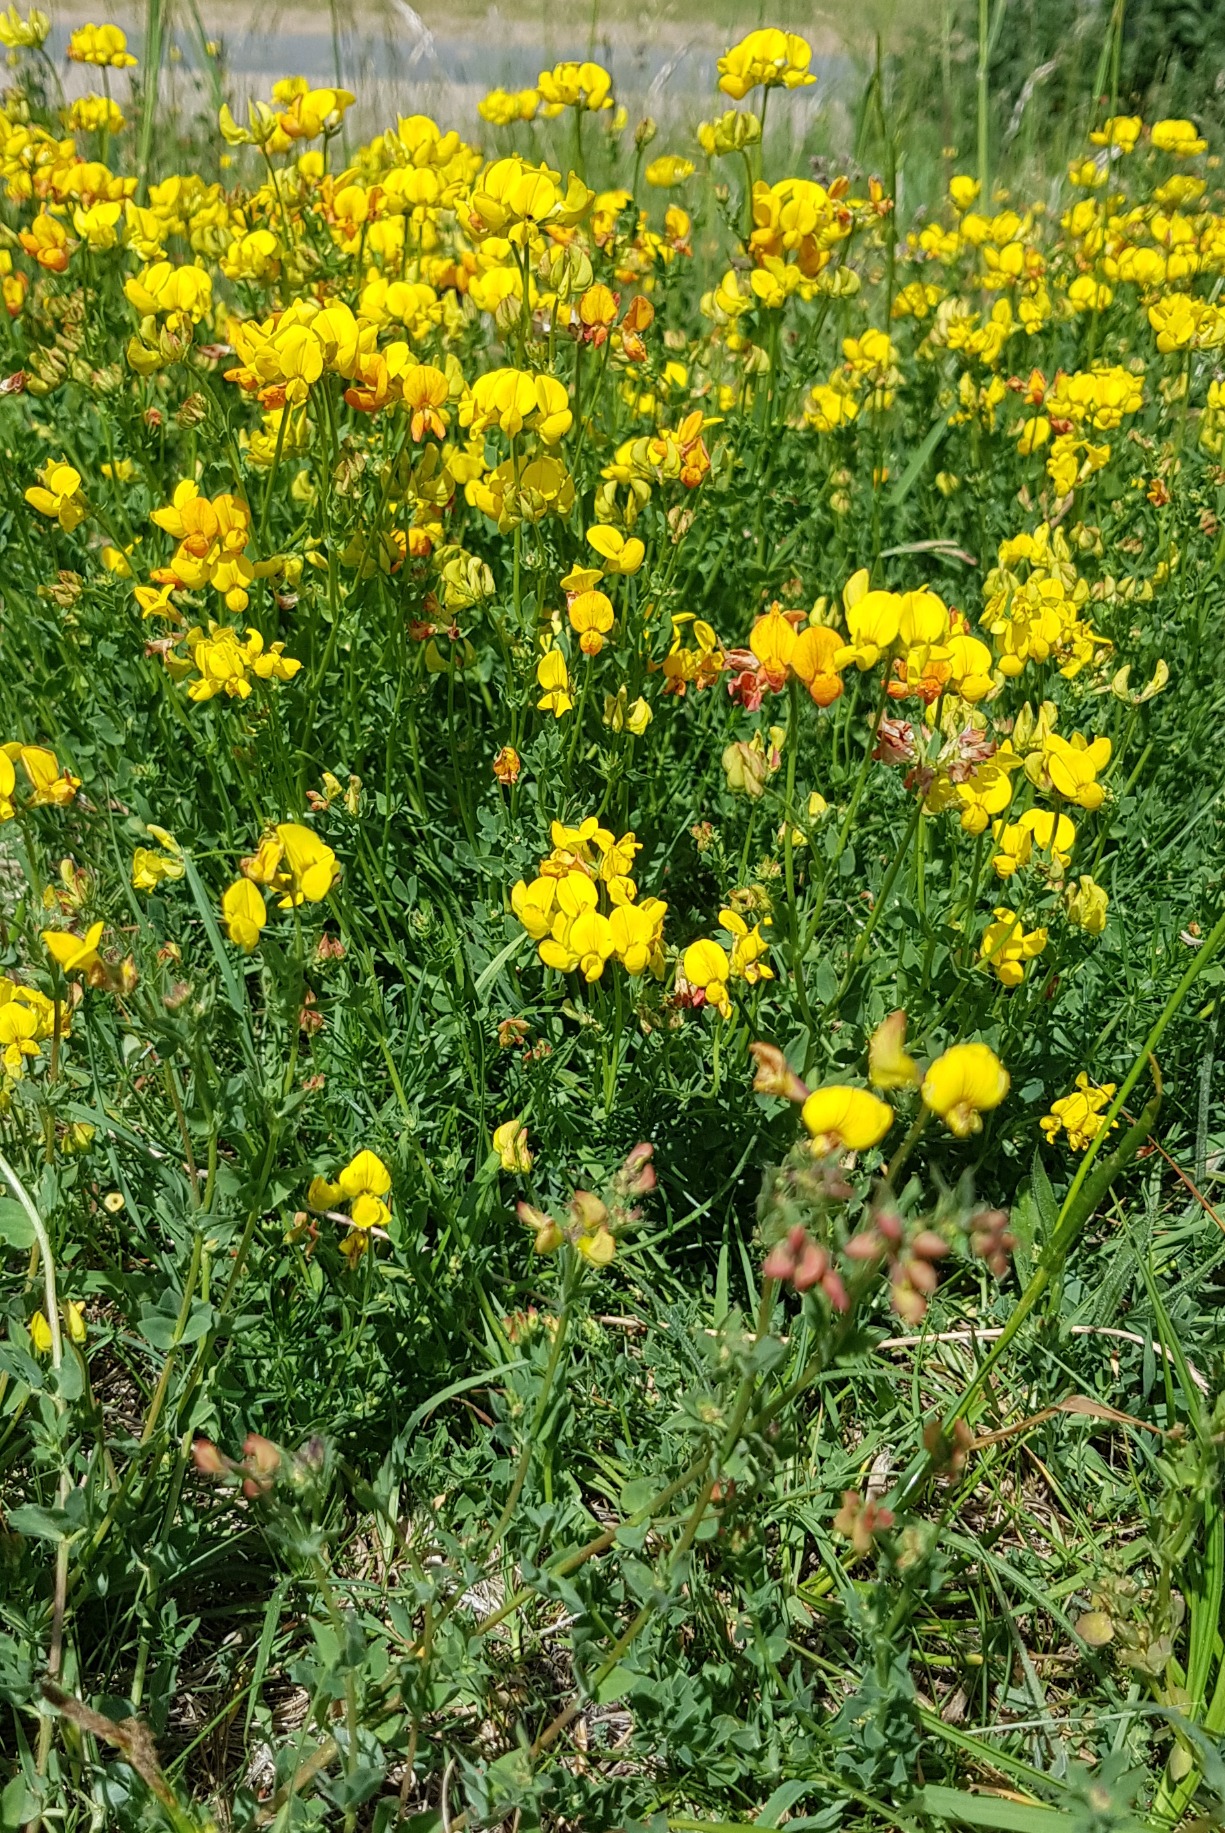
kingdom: Plantae
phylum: Tracheophyta
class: Magnoliopsida
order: Fabales
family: Fabaceae
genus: Lotus
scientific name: Lotus corniculatus
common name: Almindelig kællingetand
